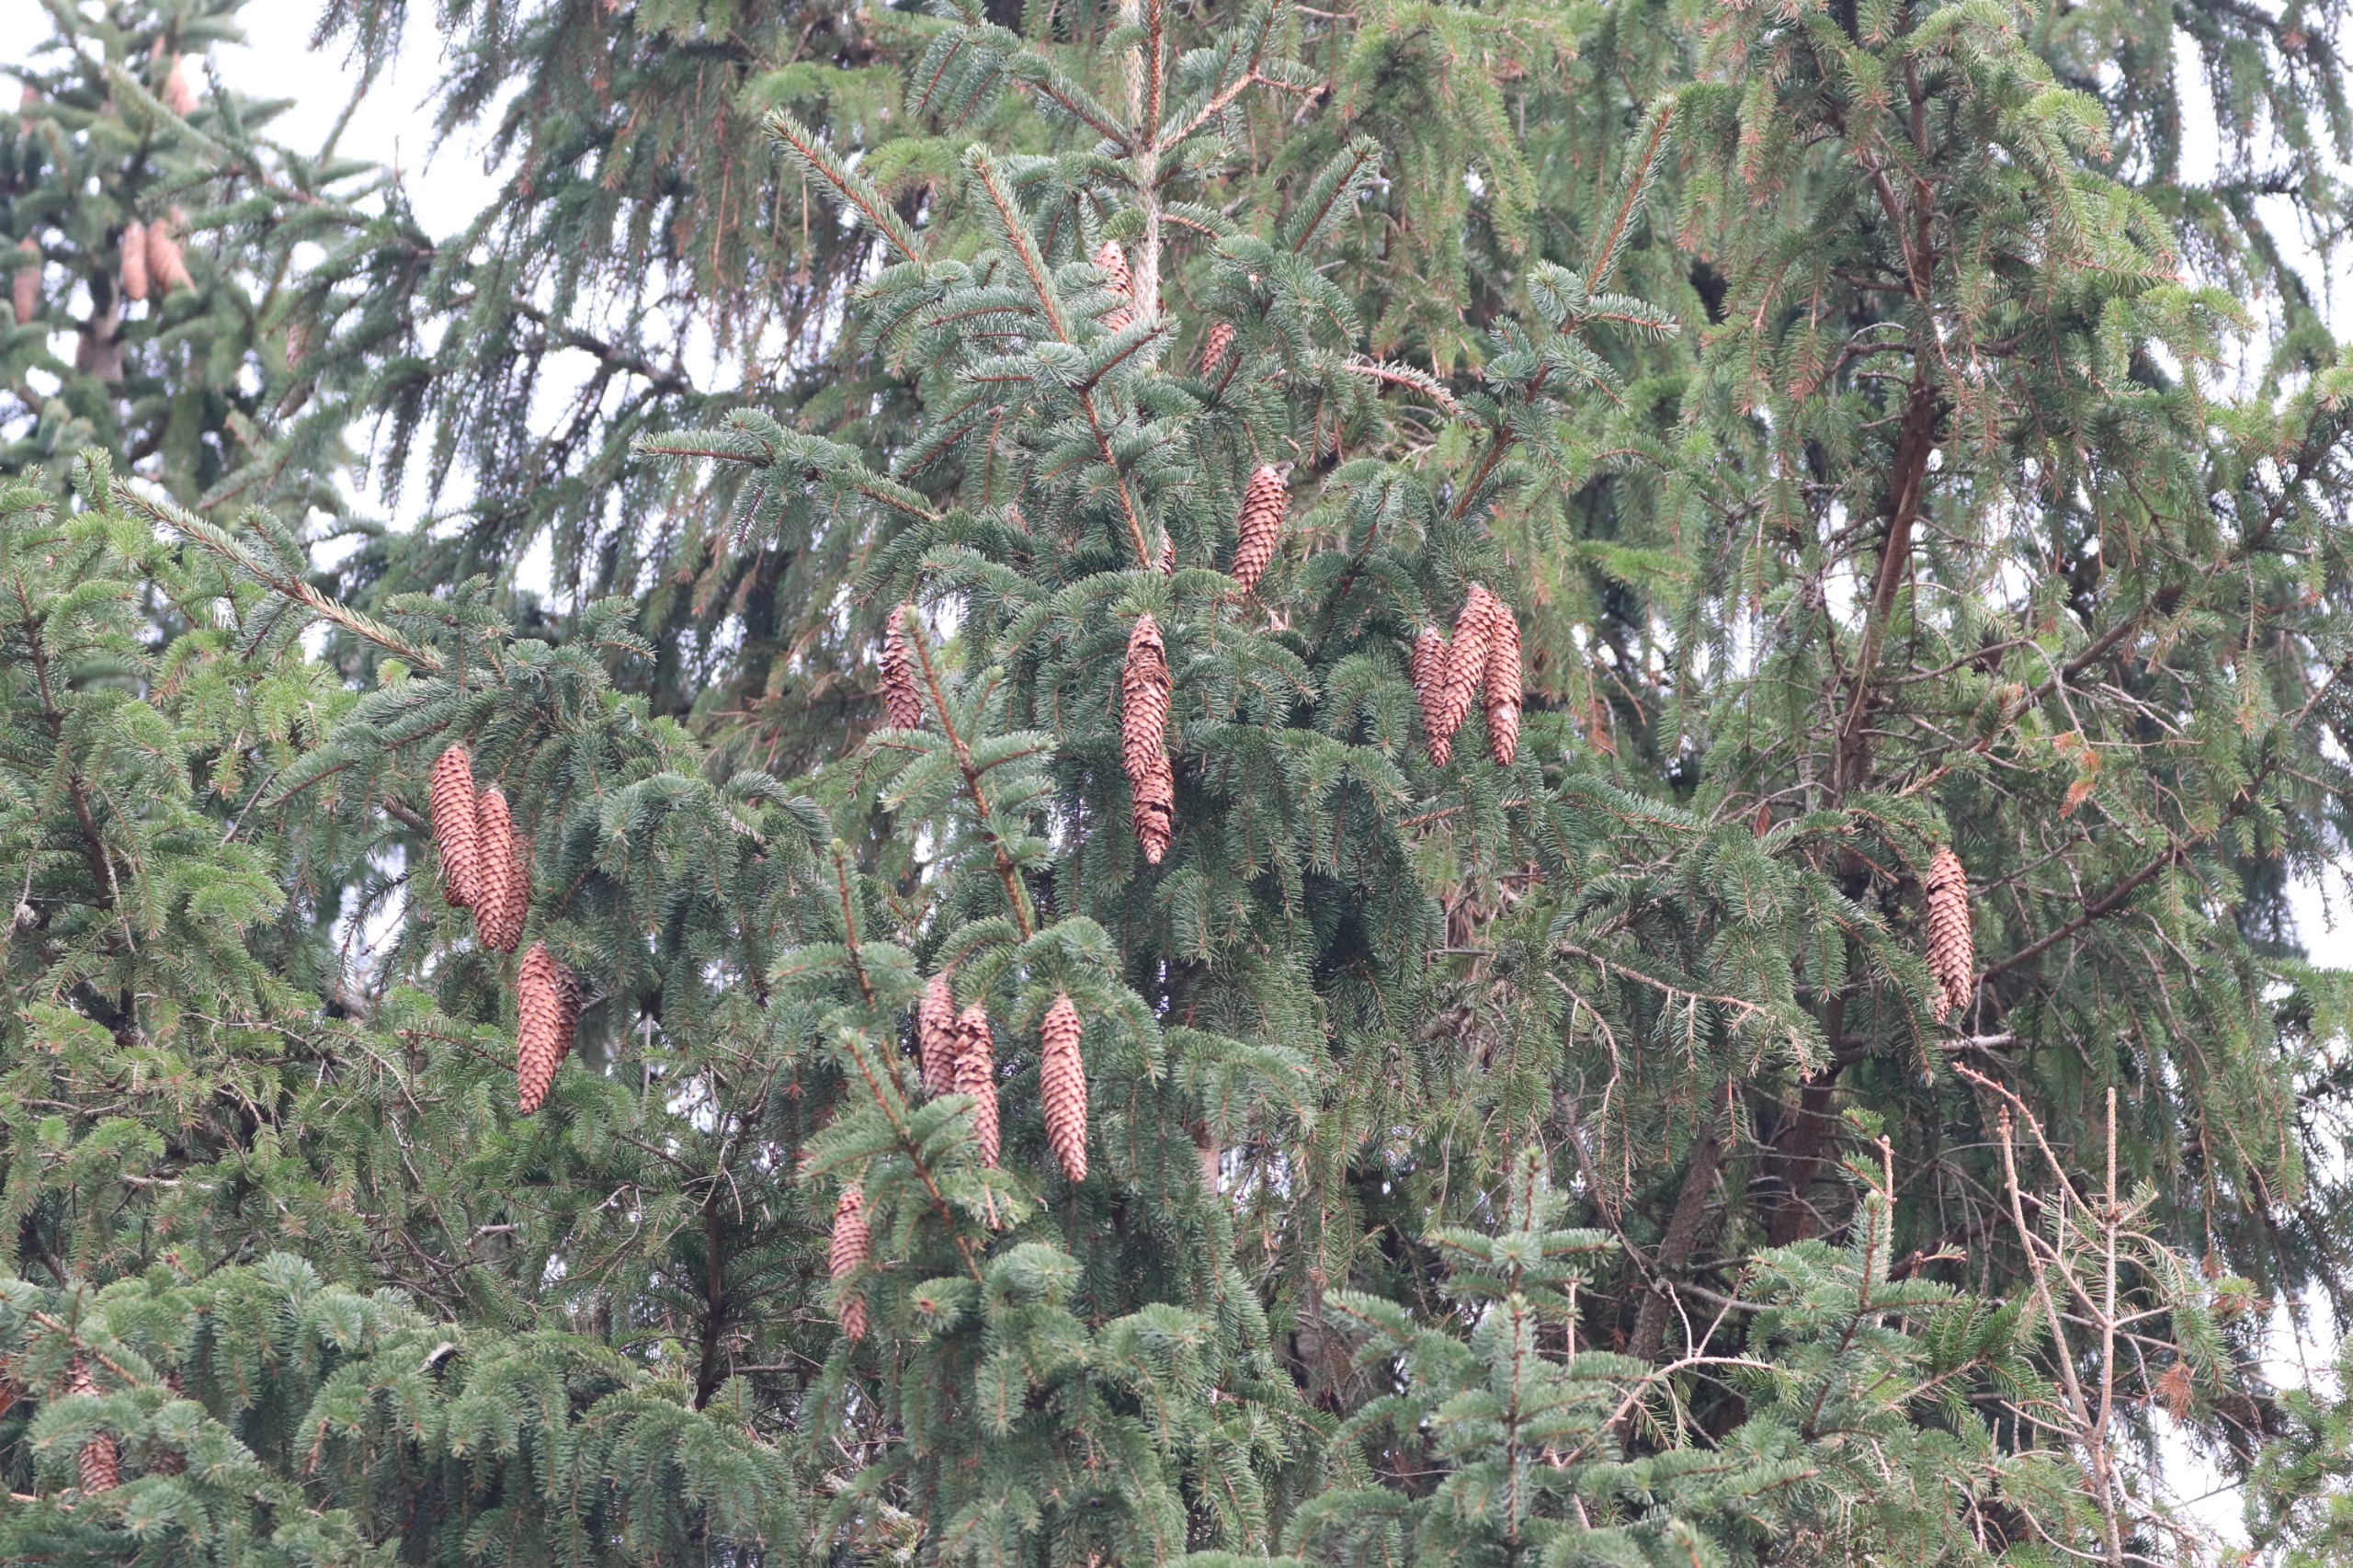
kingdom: Plantae
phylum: Tracheophyta
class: Pinopsida
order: Pinales
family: Pinaceae
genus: Picea
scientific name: Picea abies
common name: Rød-gran
